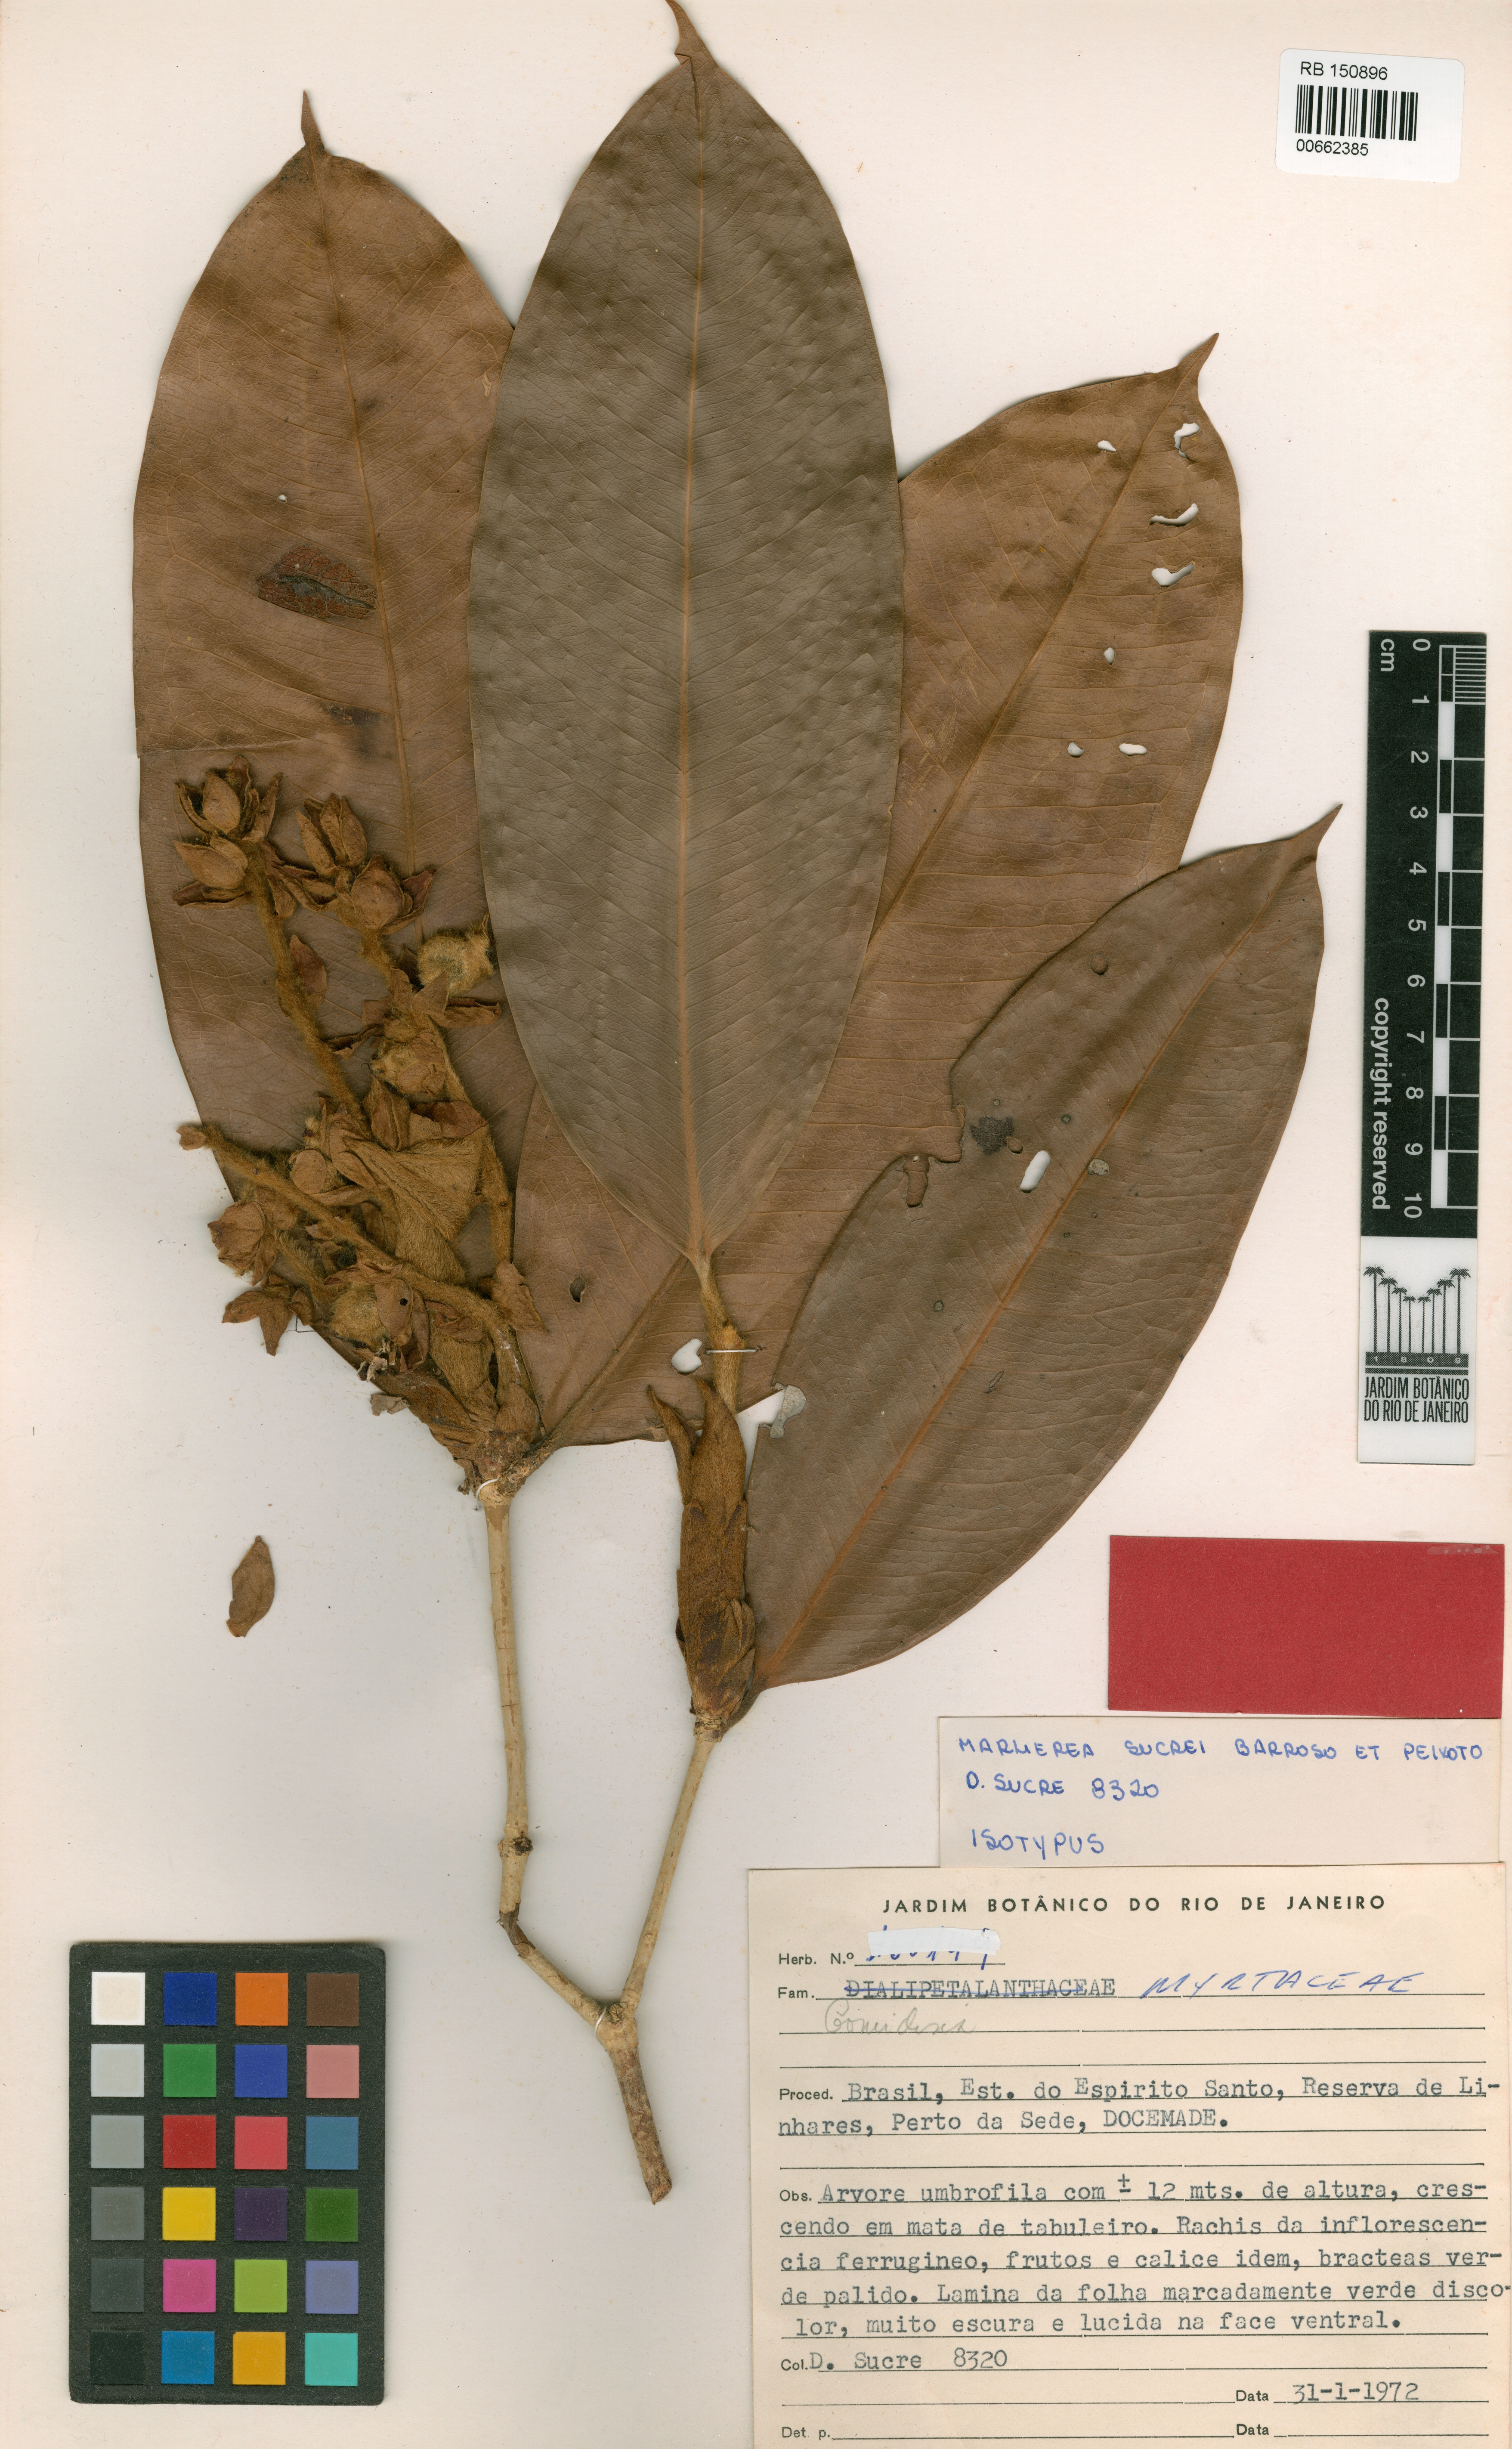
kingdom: Plantae
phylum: Tracheophyta
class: Magnoliopsida
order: Myrtales
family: Myrtaceae
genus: Myrcia
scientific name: Myrcia sucrei
